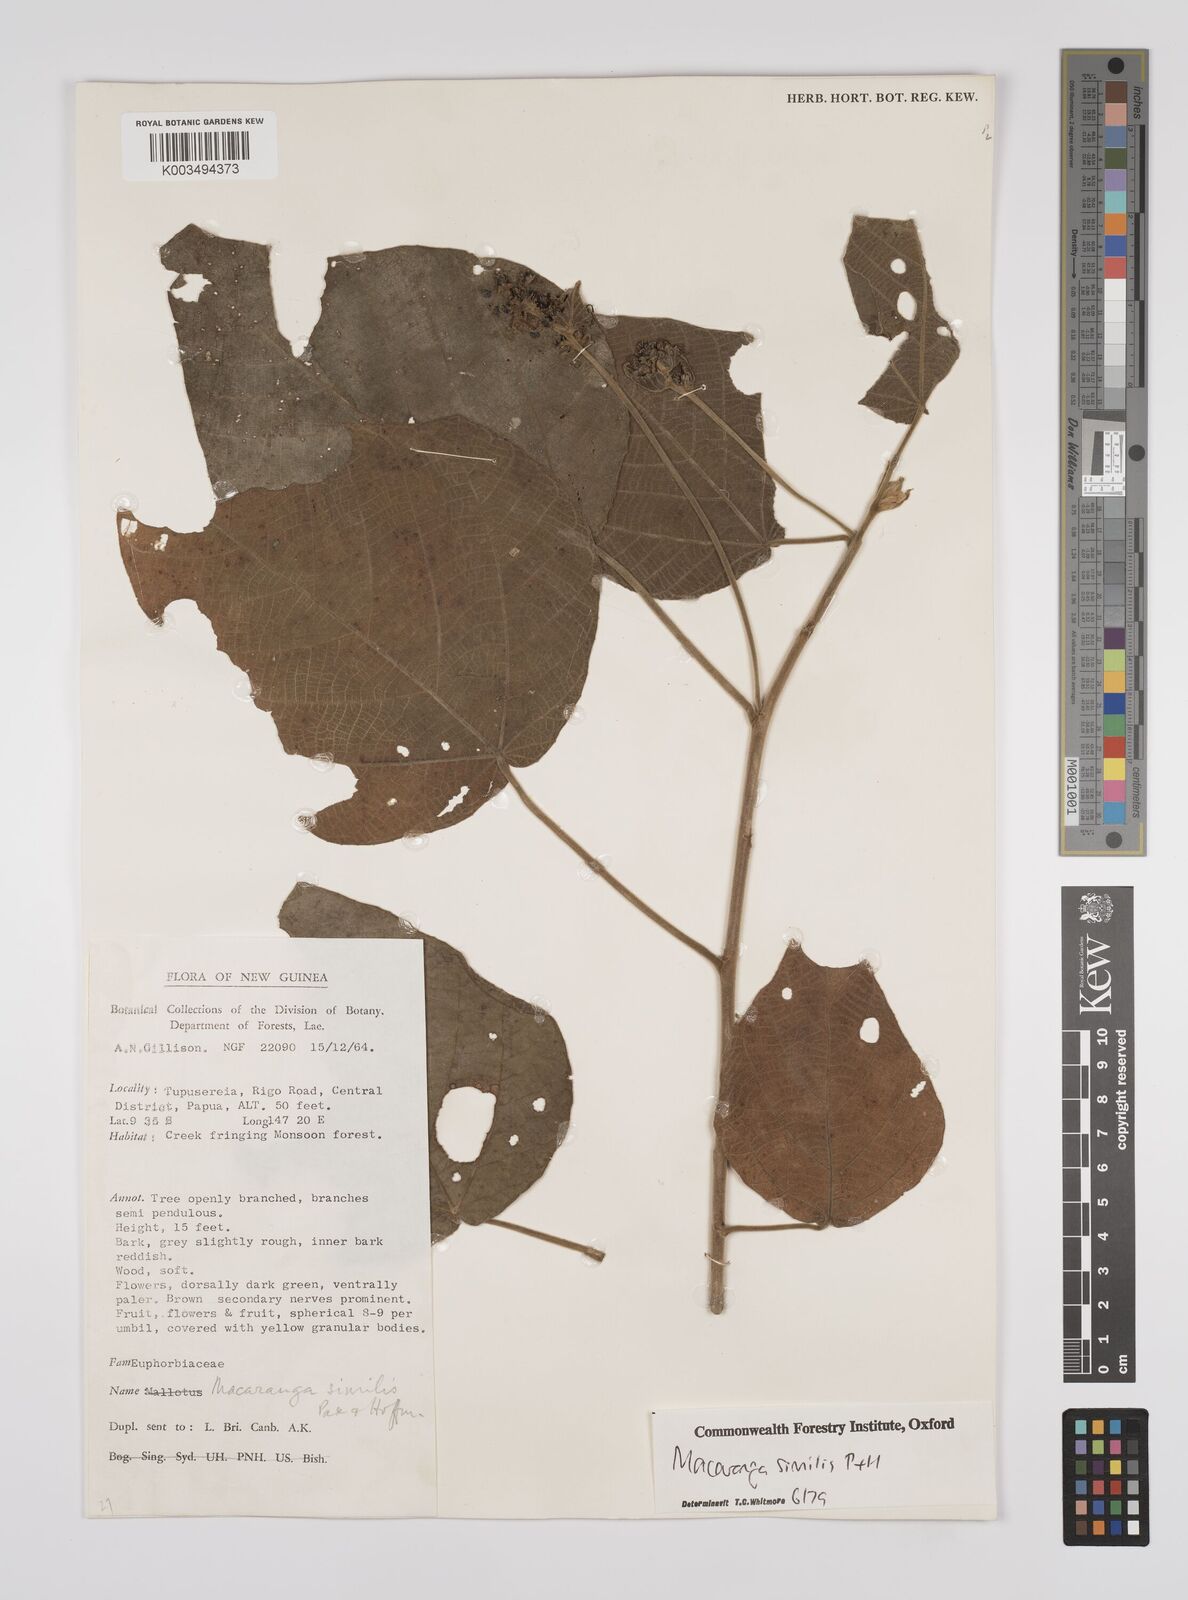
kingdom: Plantae
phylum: Tracheophyta
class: Magnoliopsida
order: Malpighiales
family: Euphorbiaceae
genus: Macaranga
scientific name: Macaranga similis
